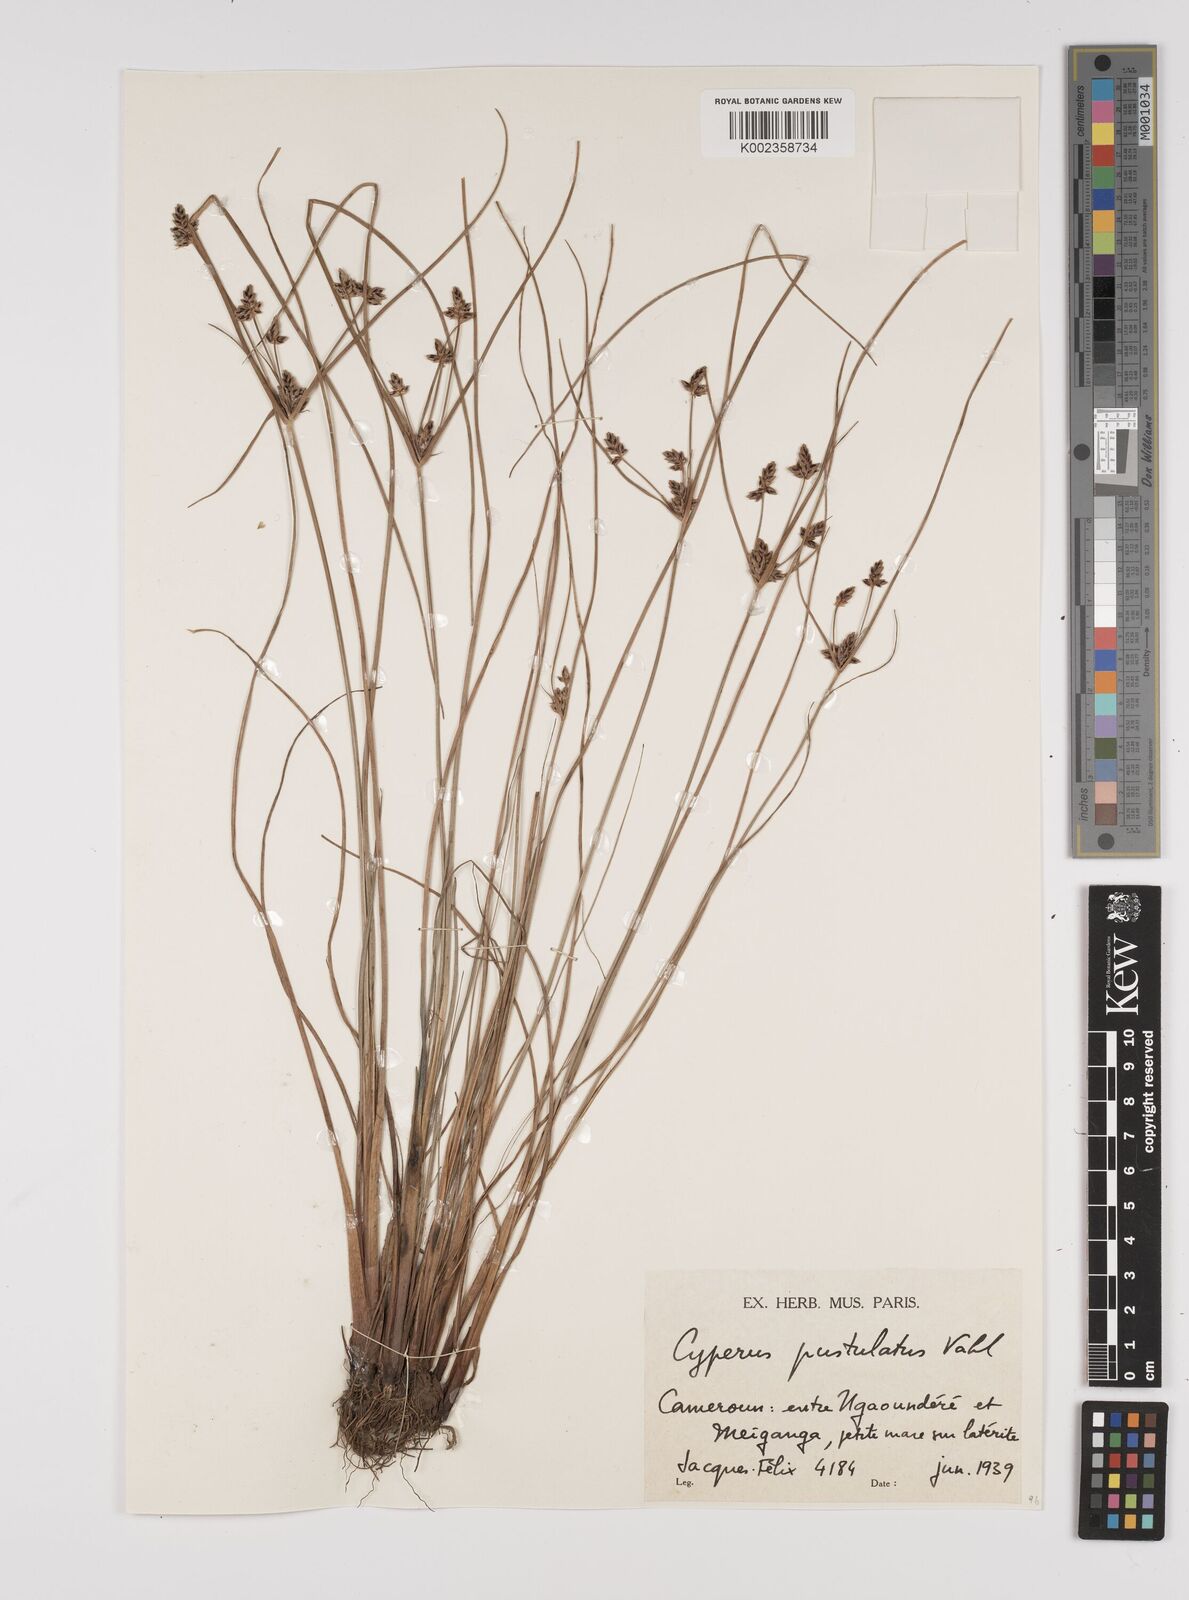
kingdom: Plantae
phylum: Tracheophyta
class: Liliopsida
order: Poales
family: Cyperaceae
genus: Cyperus
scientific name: Cyperus pustulatus
